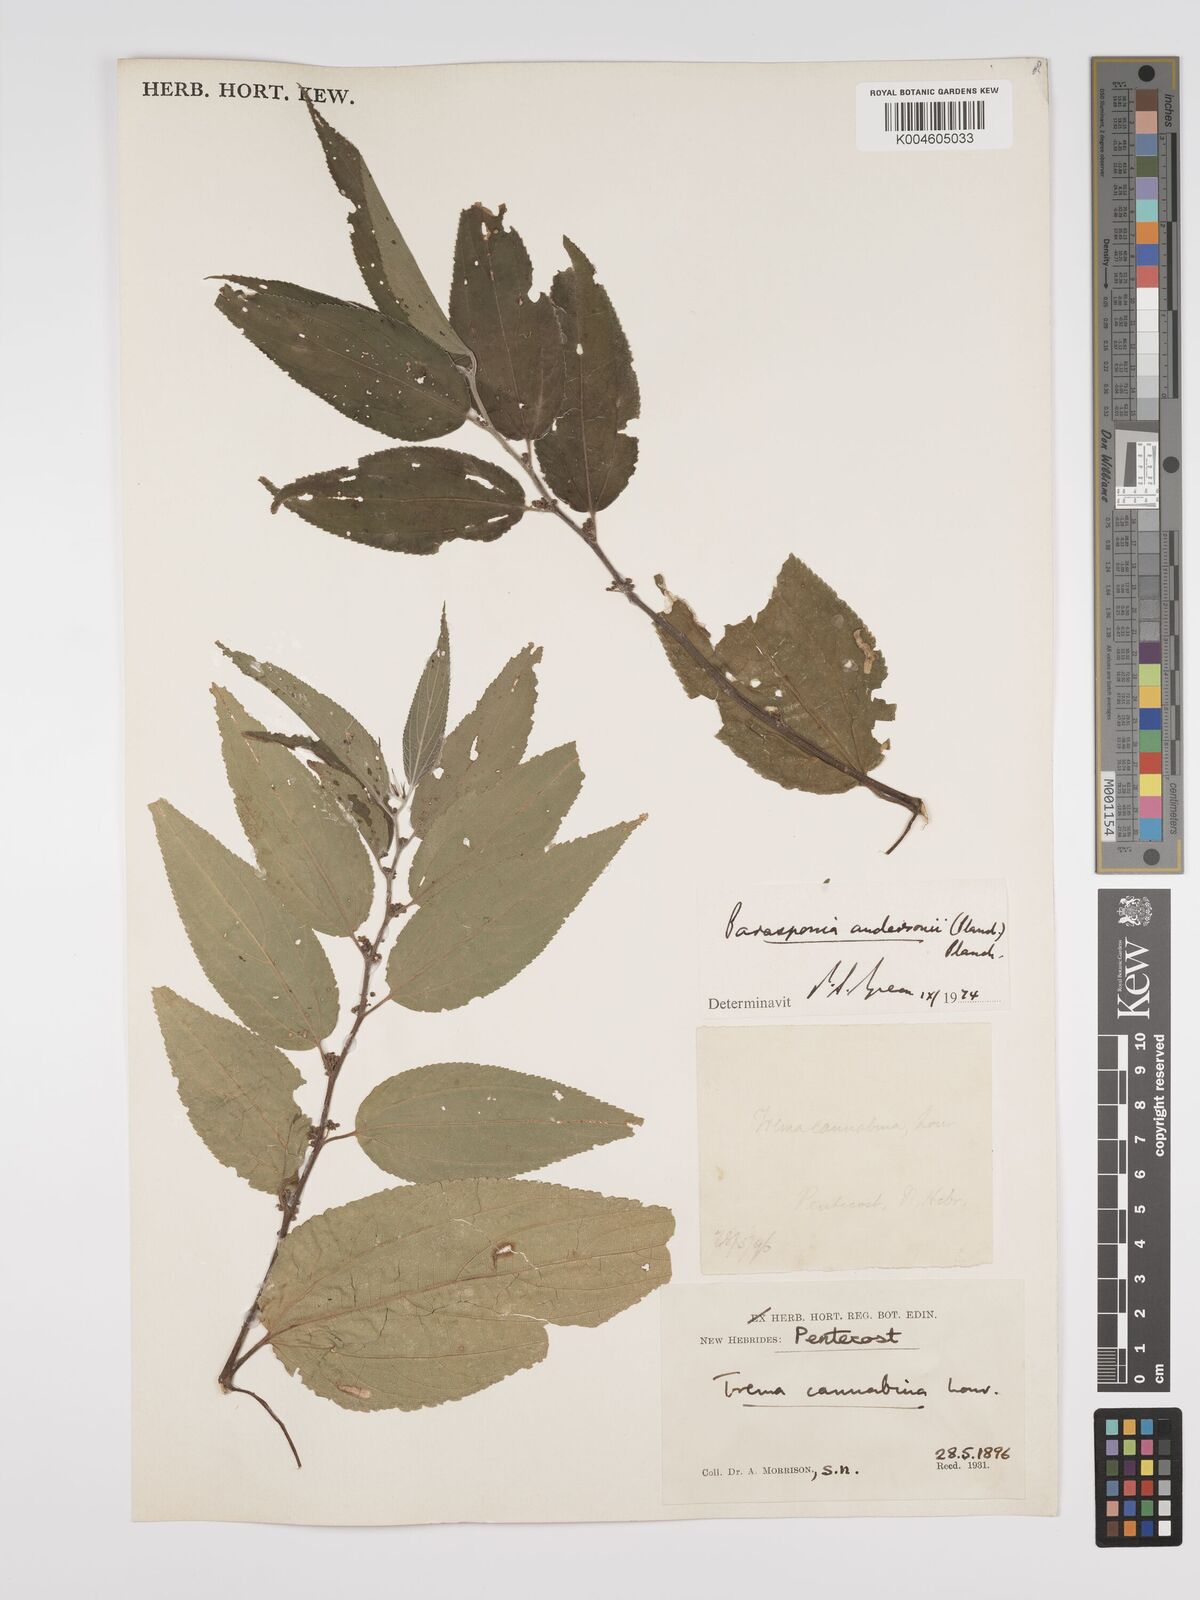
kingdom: Plantae
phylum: Tracheophyta
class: Magnoliopsida
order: Rosales
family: Cannabaceae
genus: Trema
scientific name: Trema andersonii
